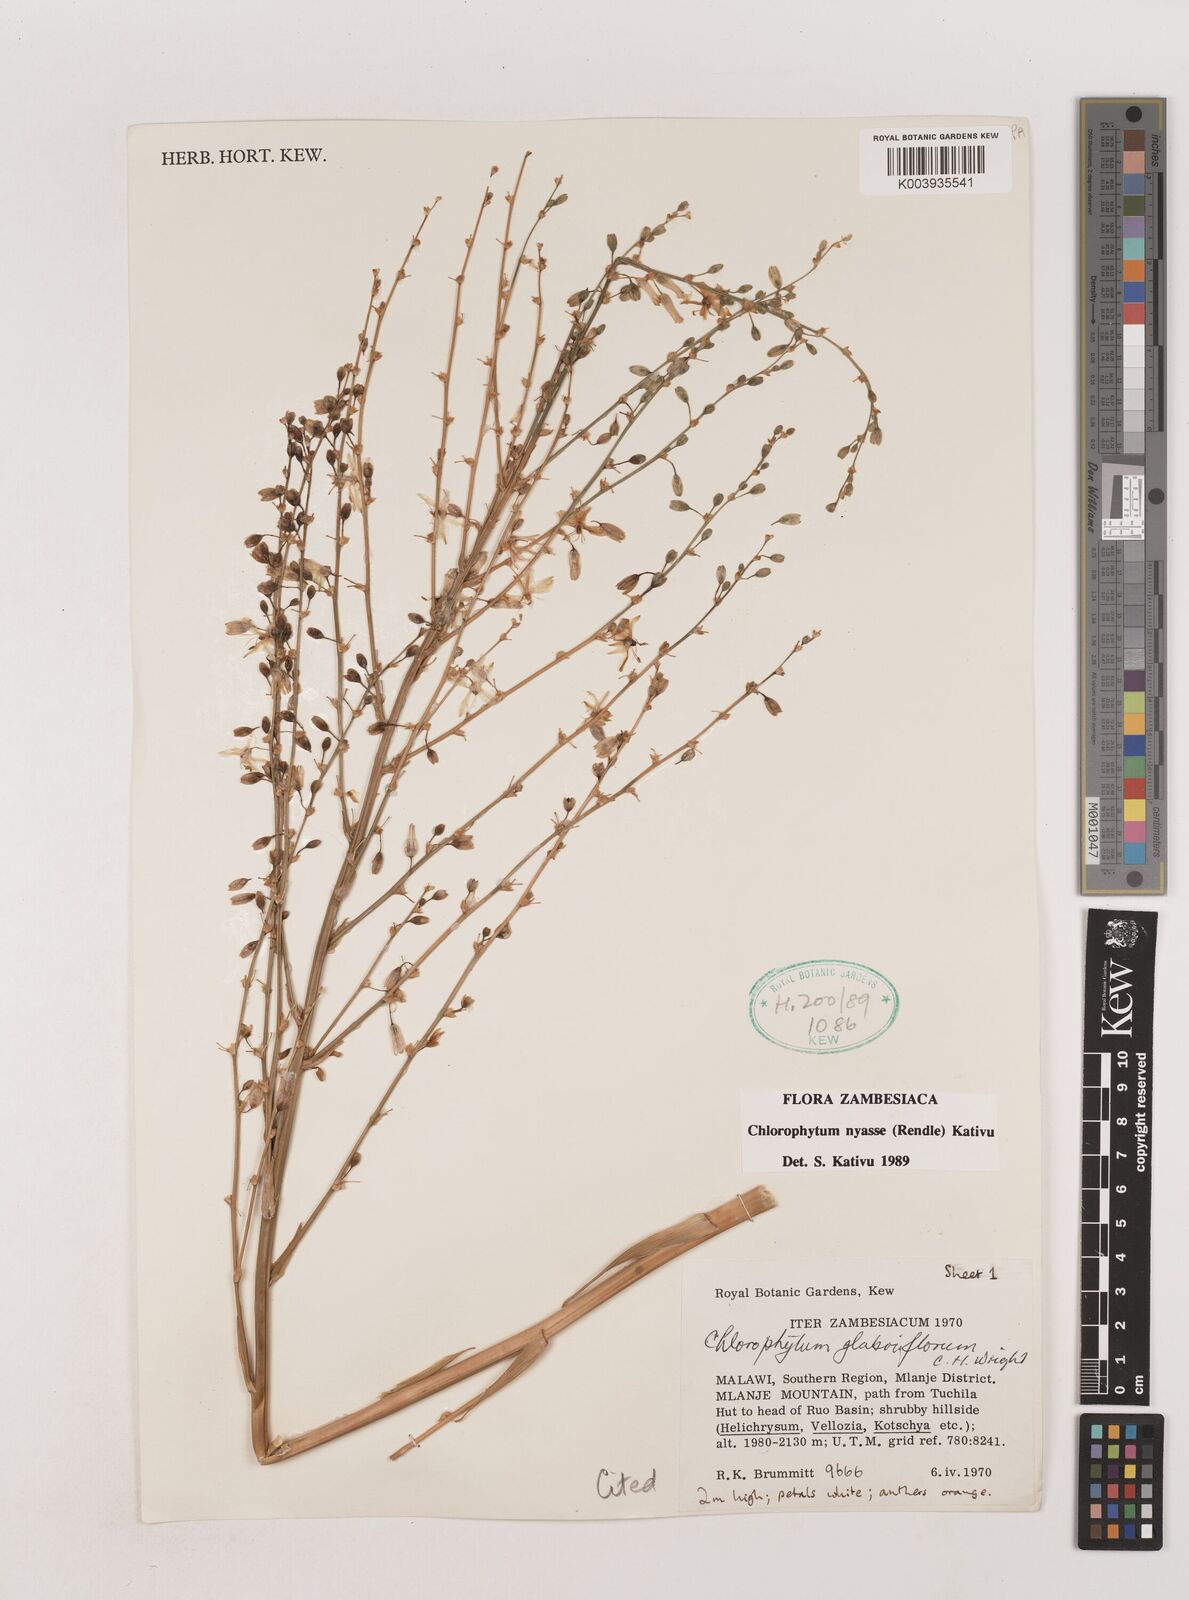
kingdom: Plantae
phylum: Tracheophyta
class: Liliopsida
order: Asparagales
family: Asparagaceae
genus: Chlorophytum
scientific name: Chlorophytum nyasae
